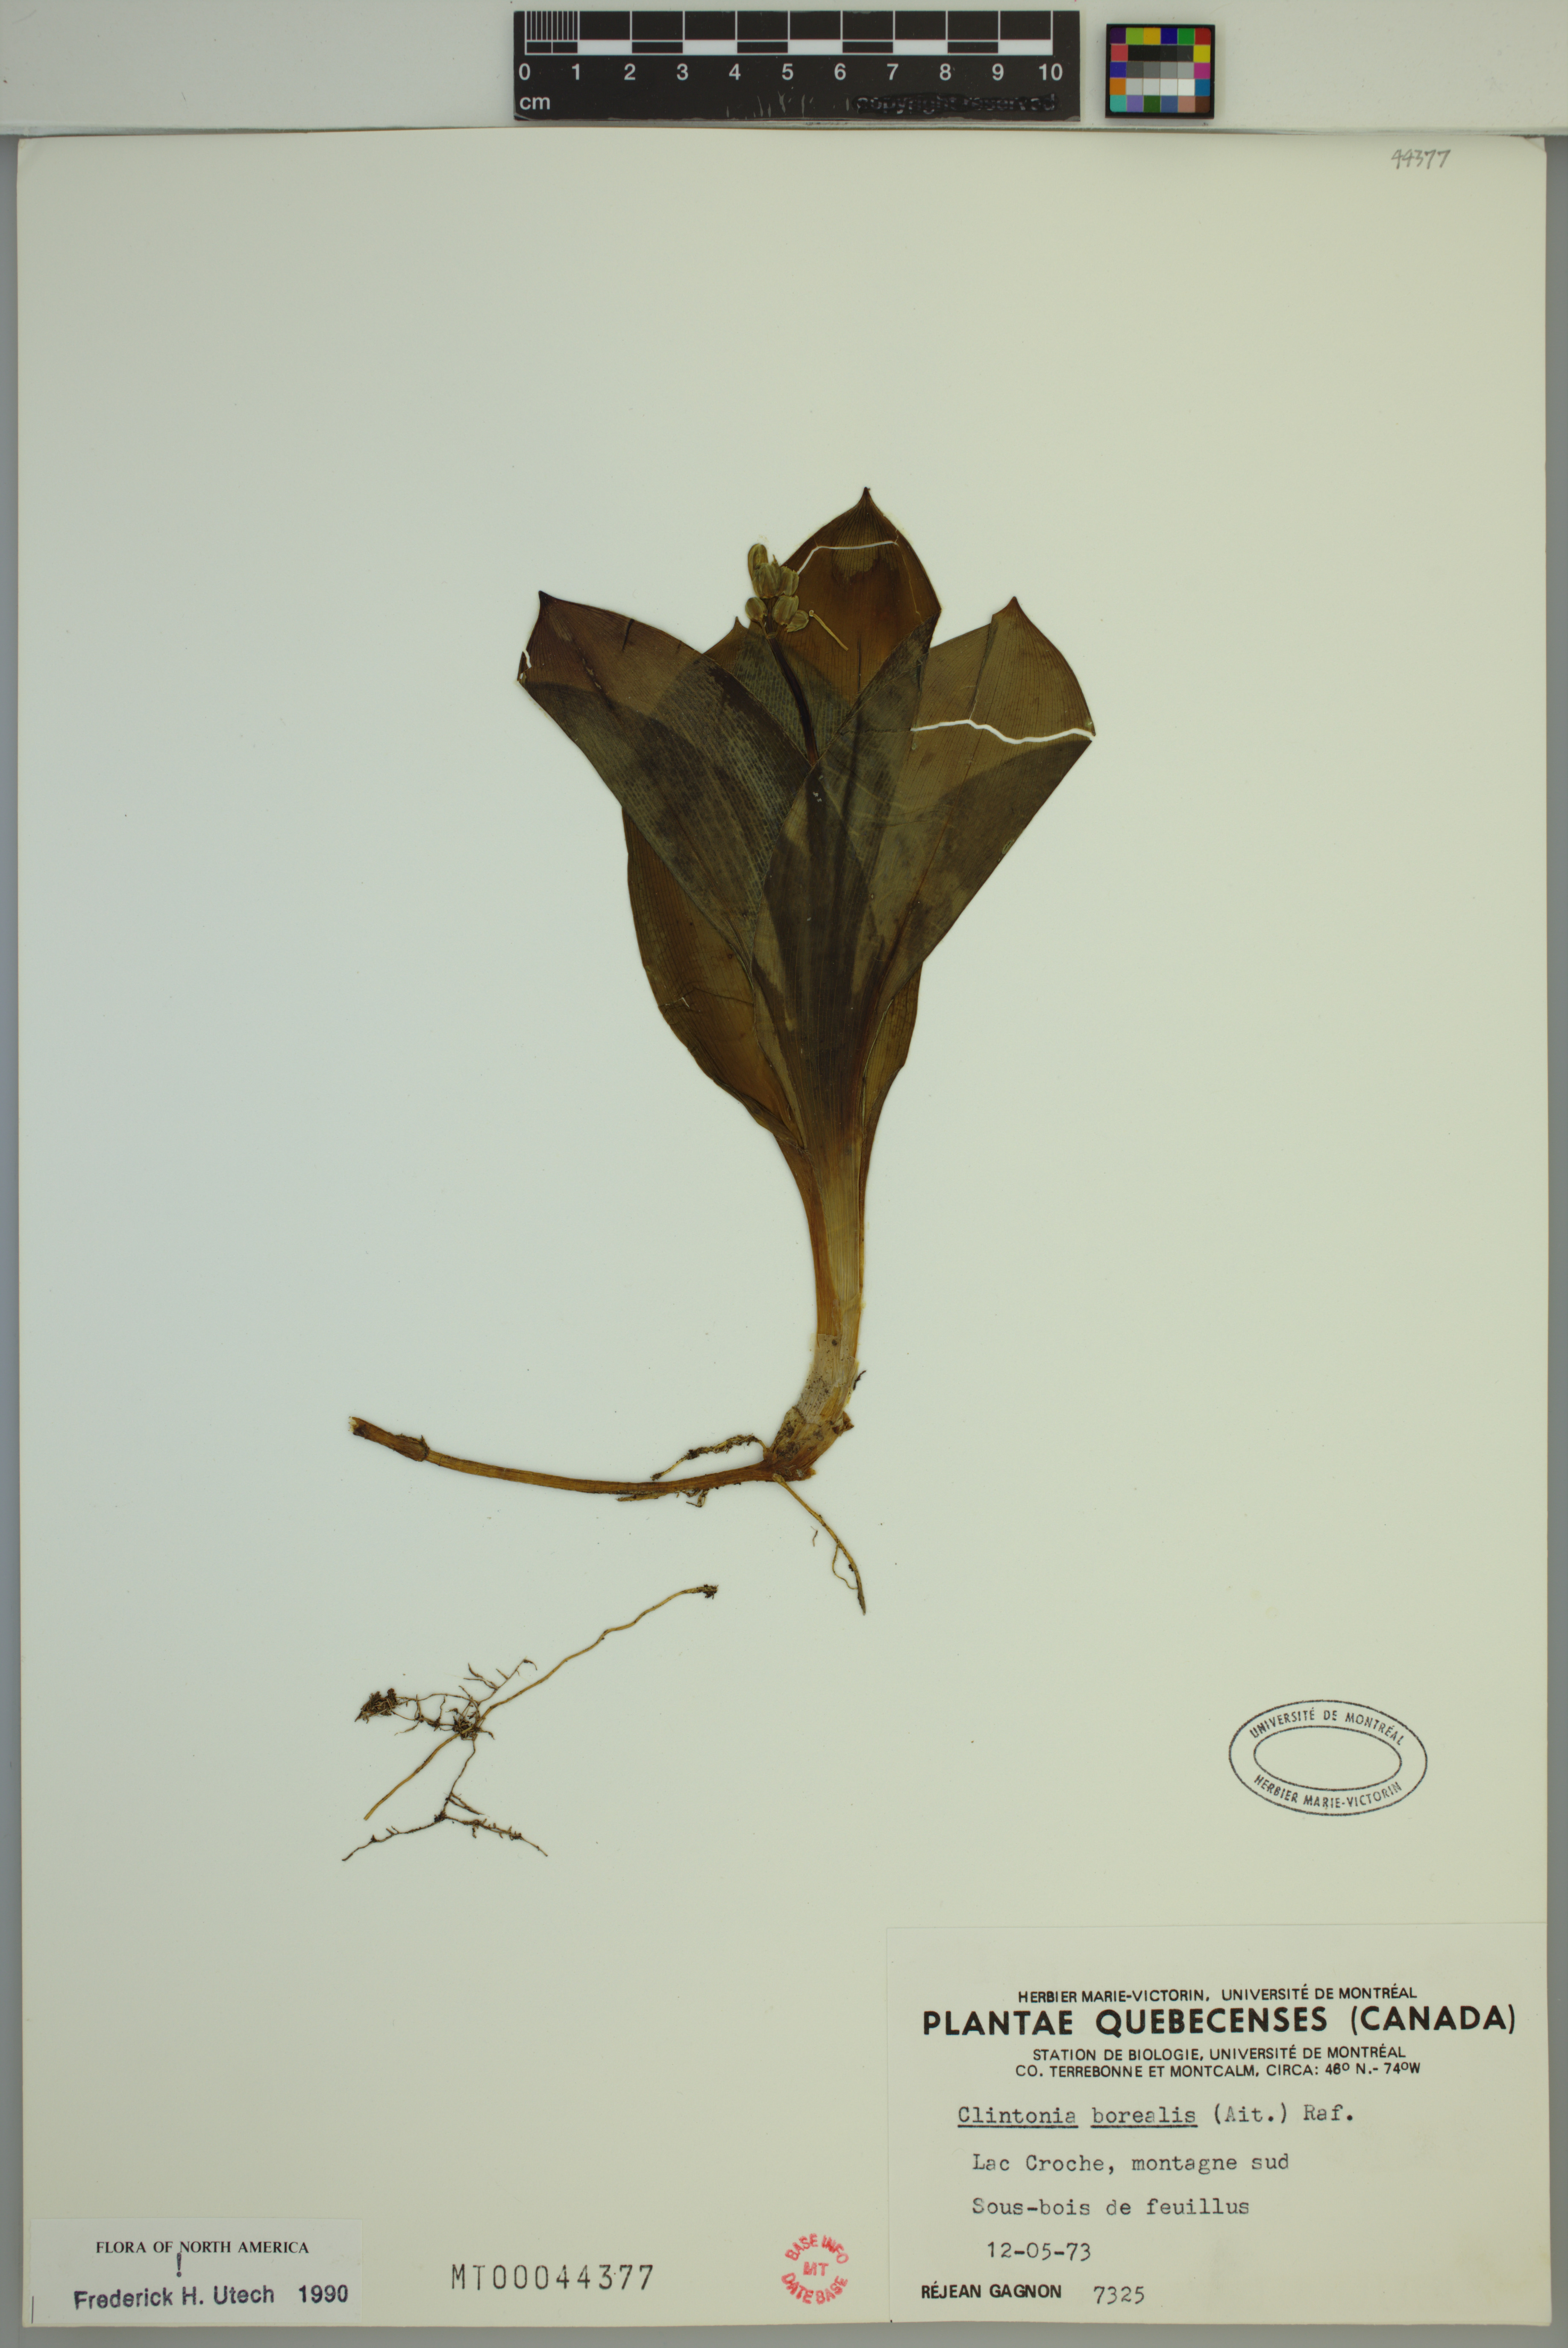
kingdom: Plantae
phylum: Tracheophyta
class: Liliopsida
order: Liliales
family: Liliaceae
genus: Clintonia
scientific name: Clintonia borealis
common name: Yellow clintonia
